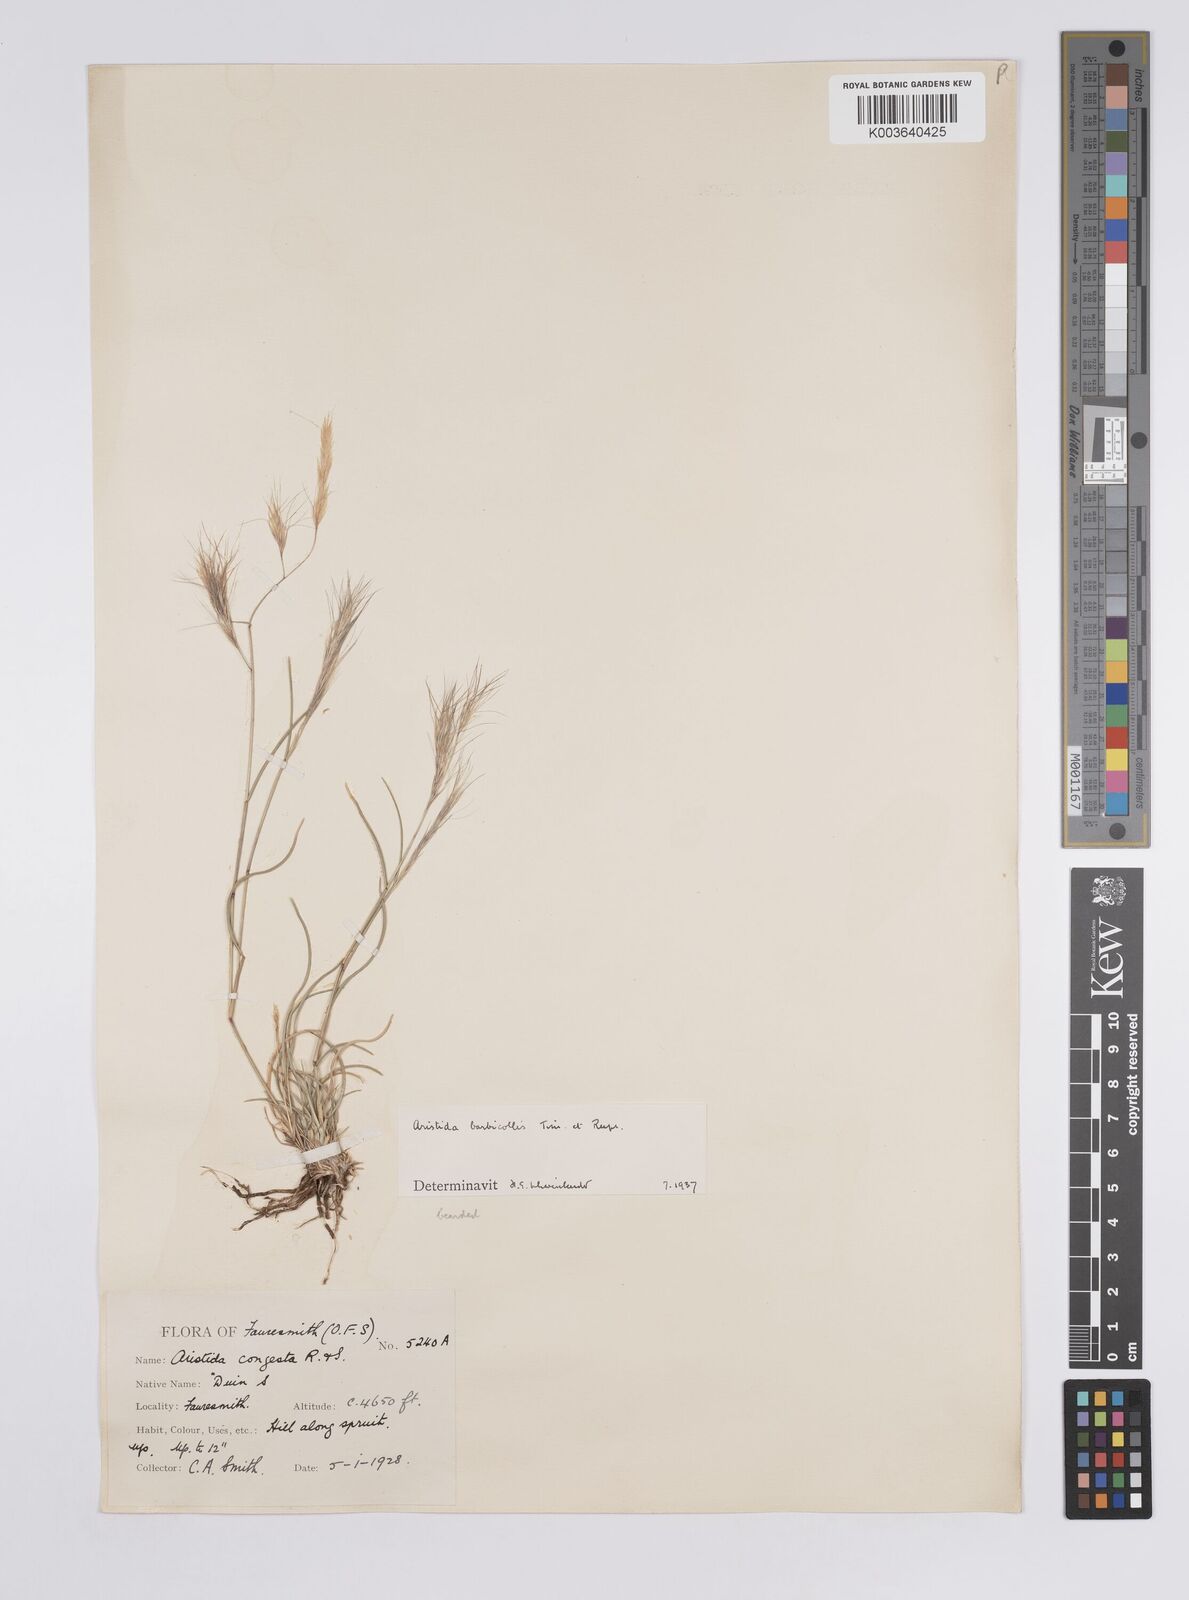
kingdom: Plantae
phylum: Tracheophyta
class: Liliopsida
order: Poales
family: Poaceae
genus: Aristida
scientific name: Aristida barbicollis
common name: Spreading prickle grass
